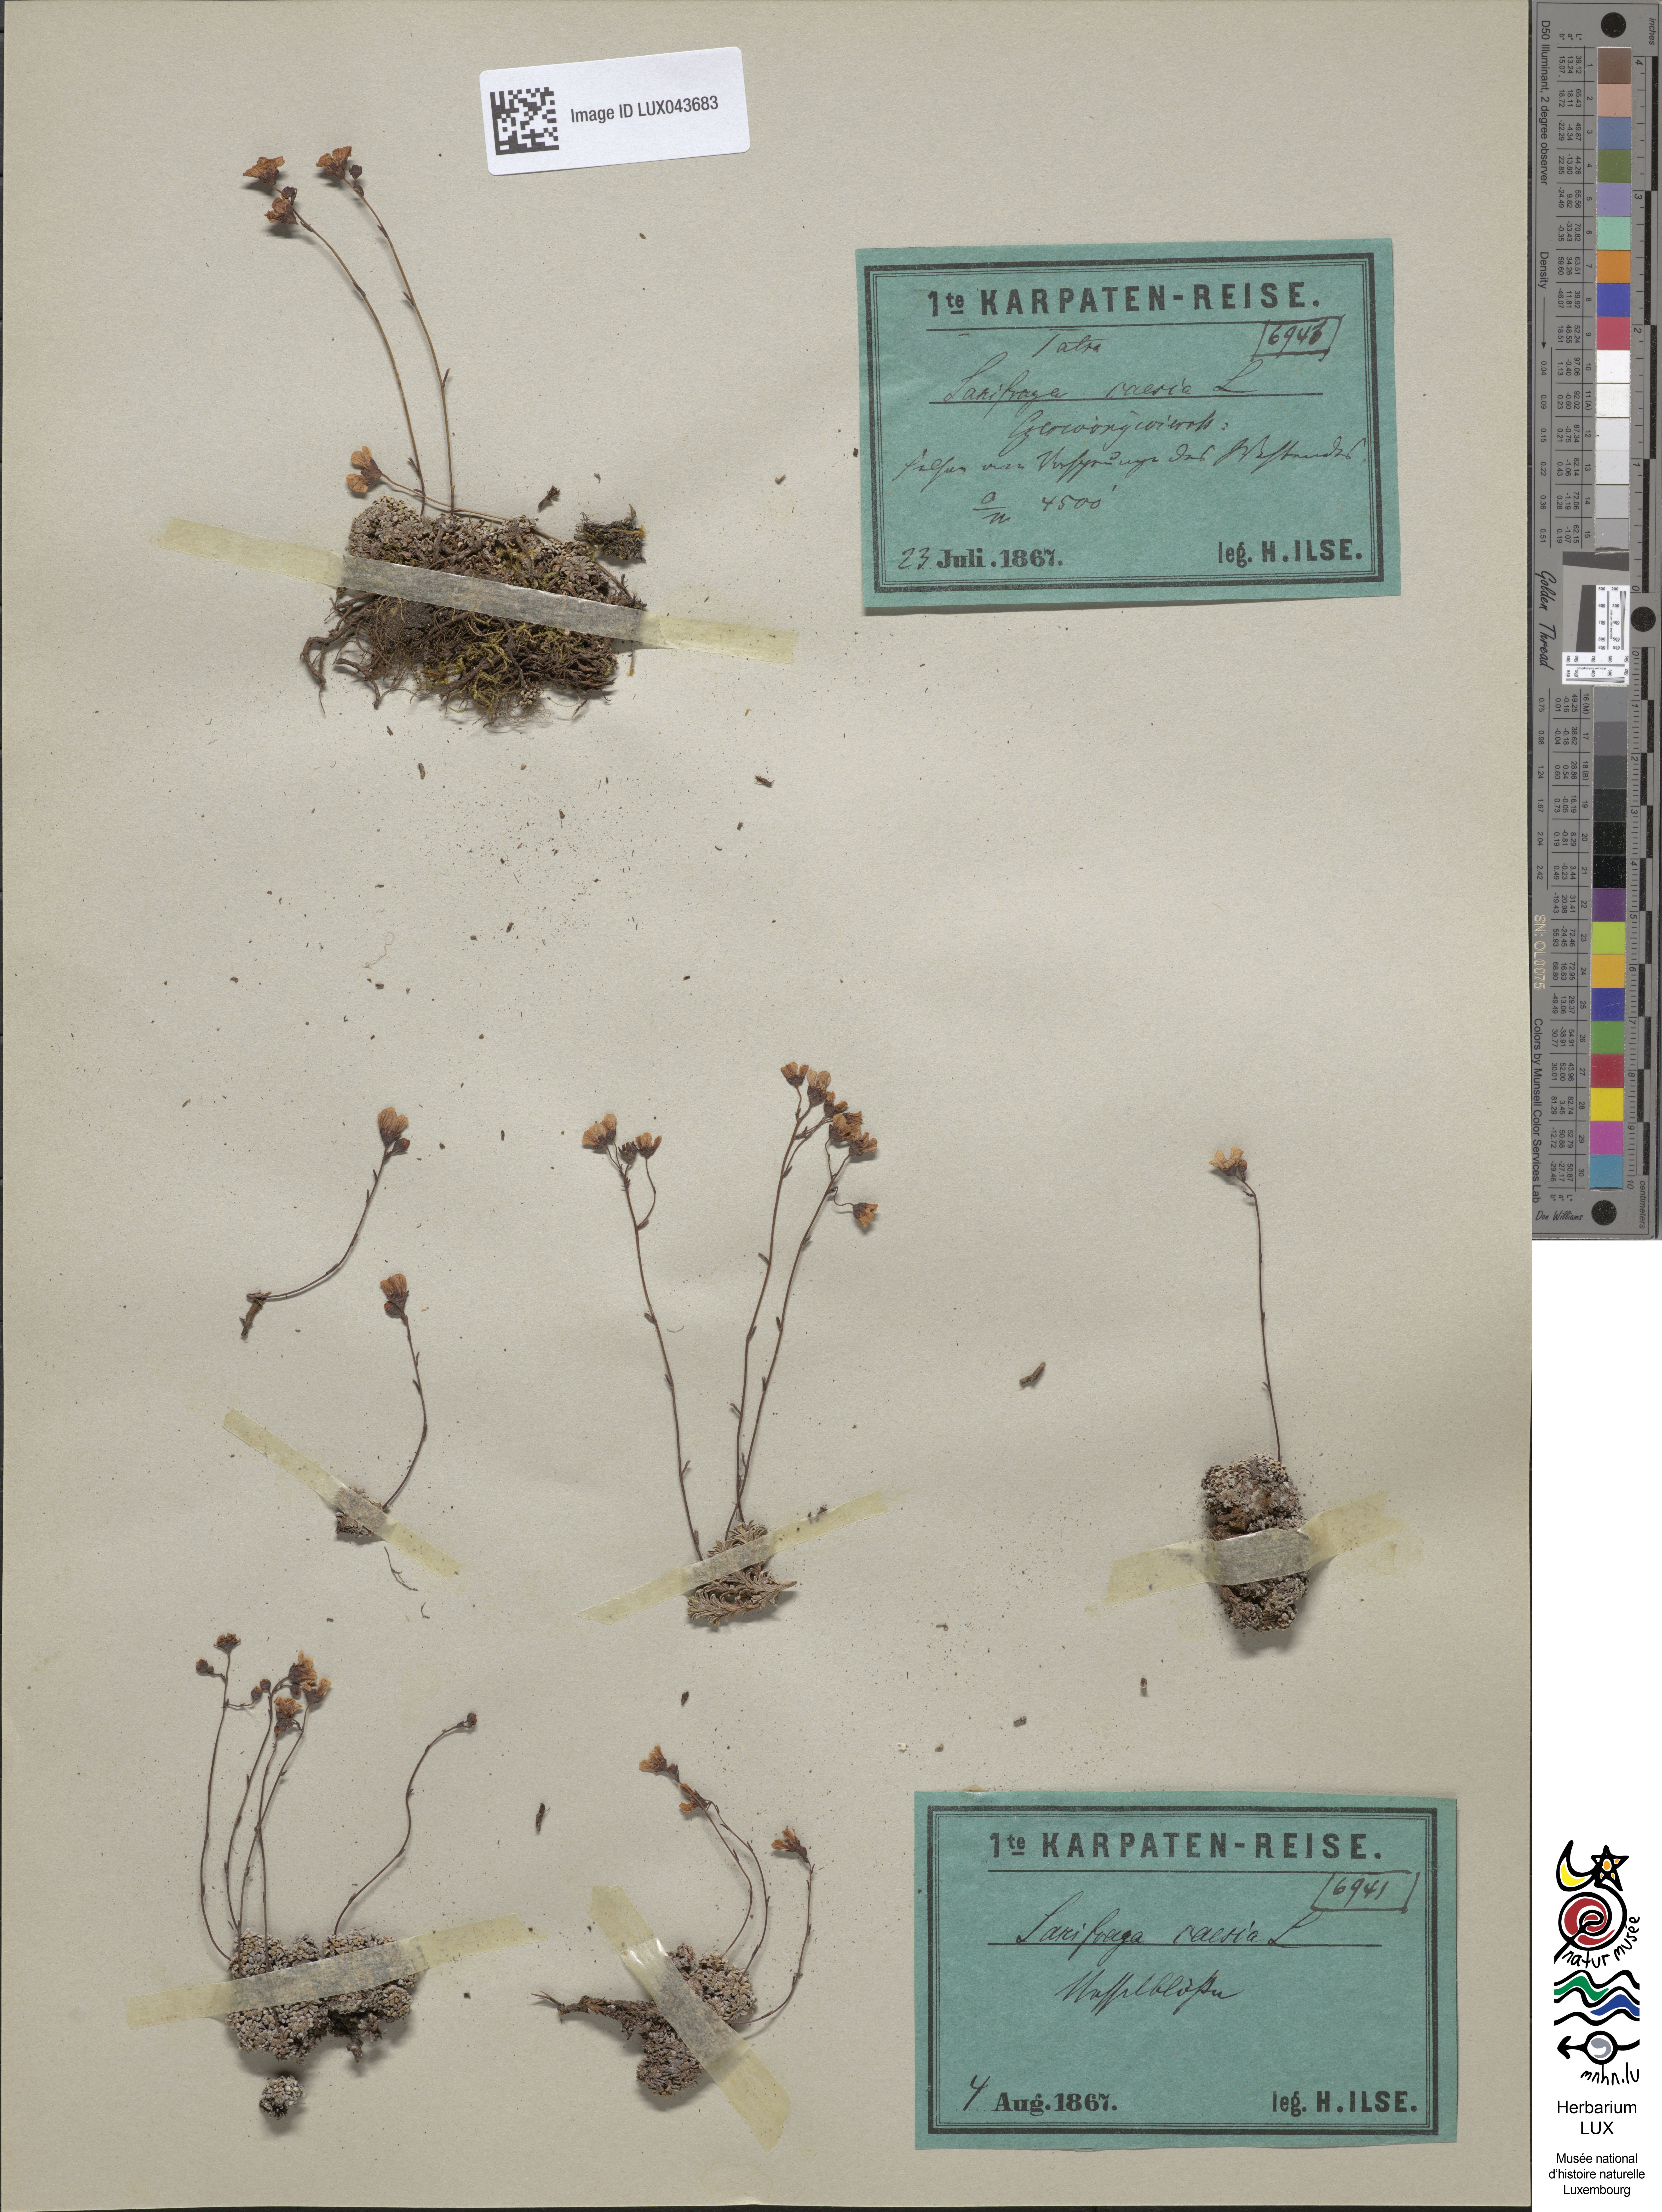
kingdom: Plantae
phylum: Tracheophyta
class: Magnoliopsida
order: Saxifragales
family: Saxifragaceae
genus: Saxifraga
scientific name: Saxifraga caesia
